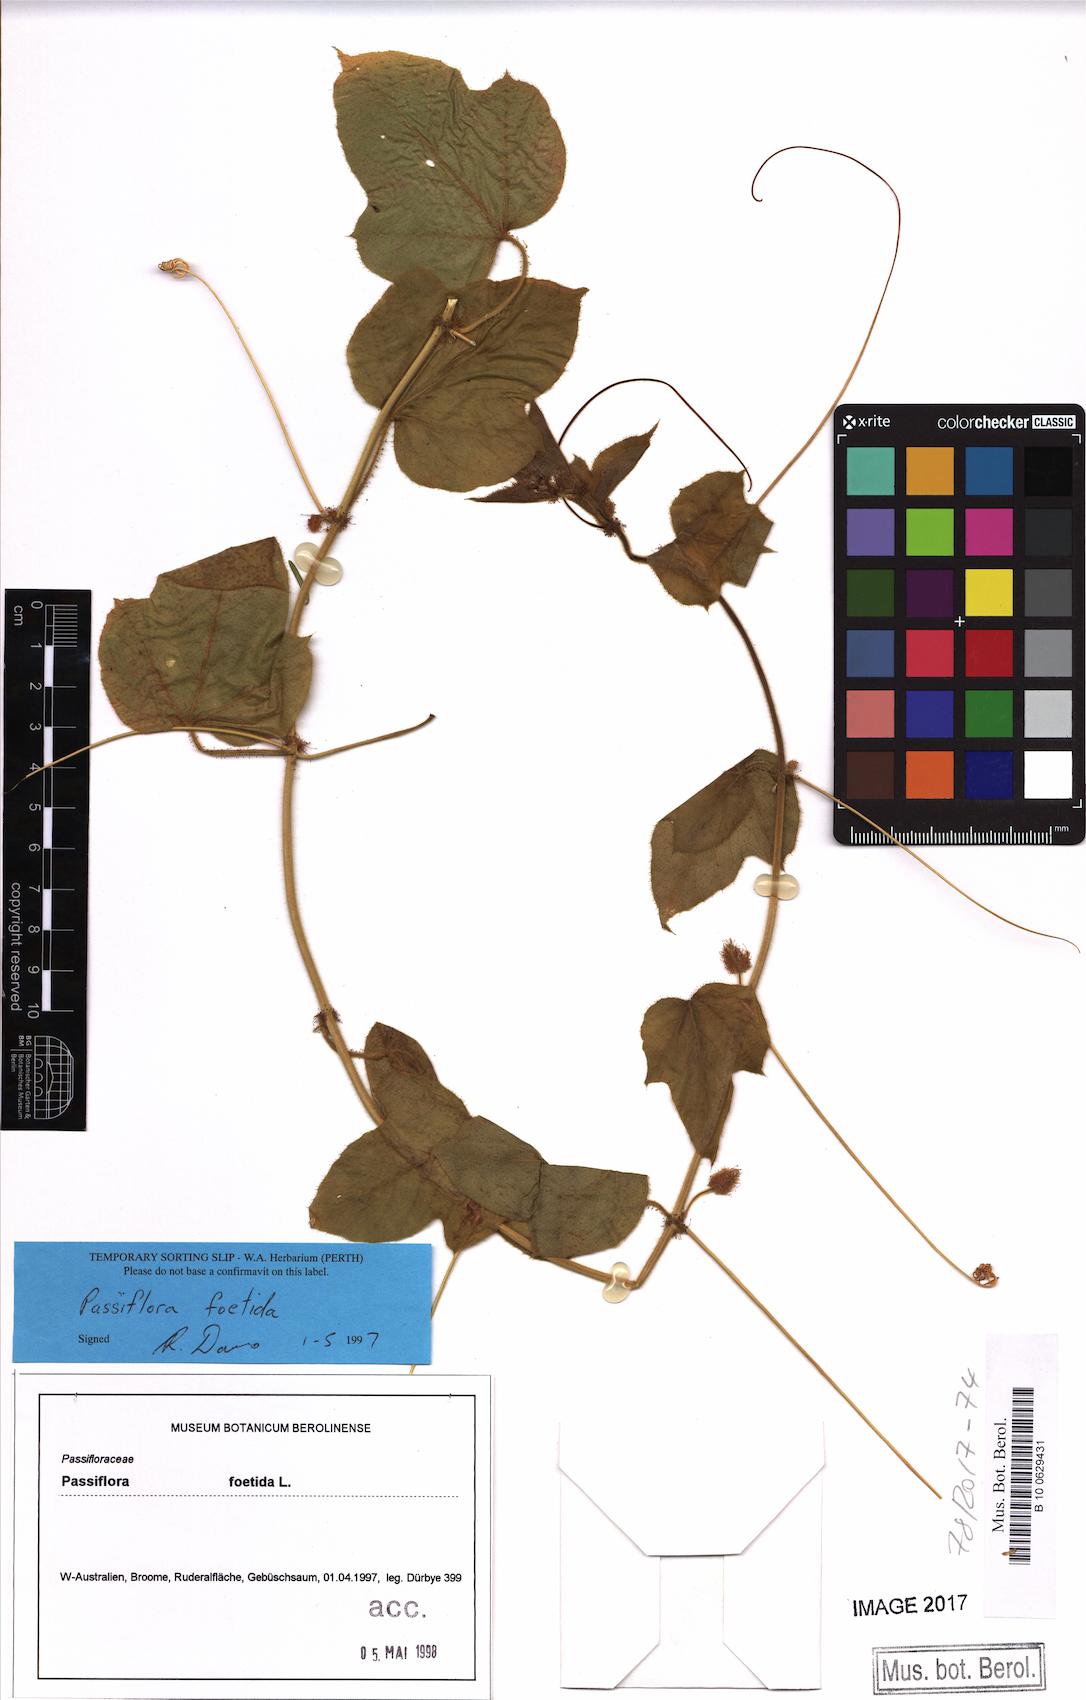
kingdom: Plantae
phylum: Tracheophyta
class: Magnoliopsida
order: Malpighiales
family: Passifloraceae
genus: Passiflora
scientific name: Passiflora foetida
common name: Fetid passionflower
